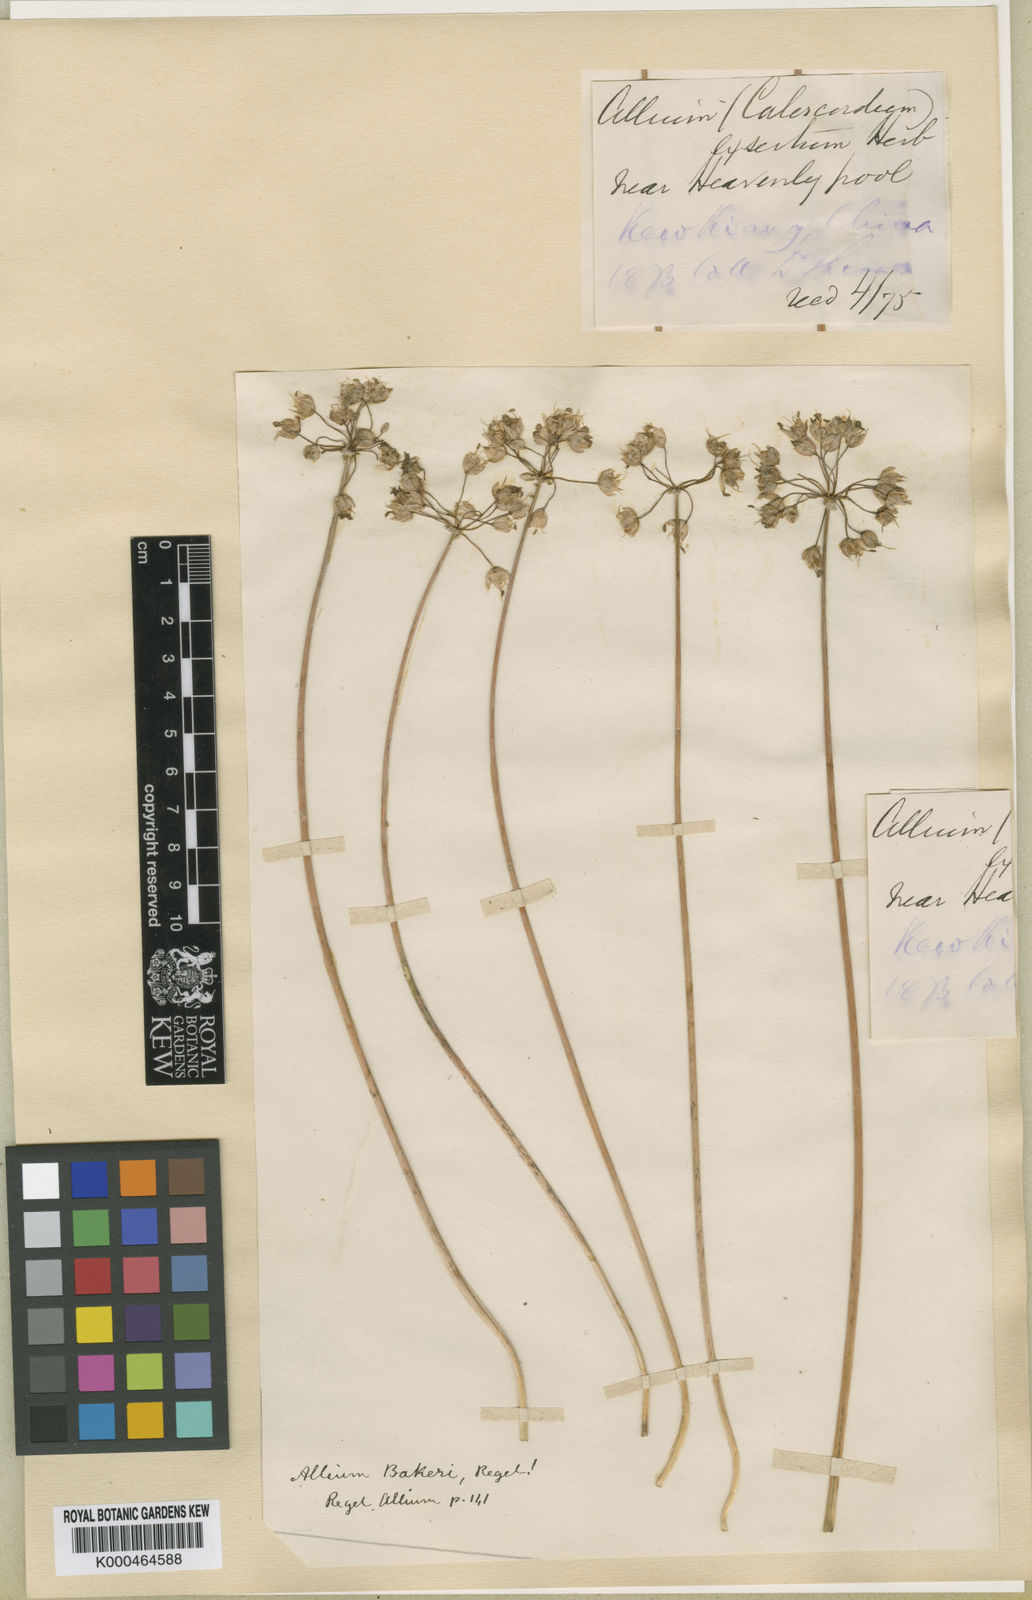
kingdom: Plantae
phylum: Tracheophyta
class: Liliopsida
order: Asparagales
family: Amaryllidaceae
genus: Allium
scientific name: Allium chinense
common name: Japanese scallion
